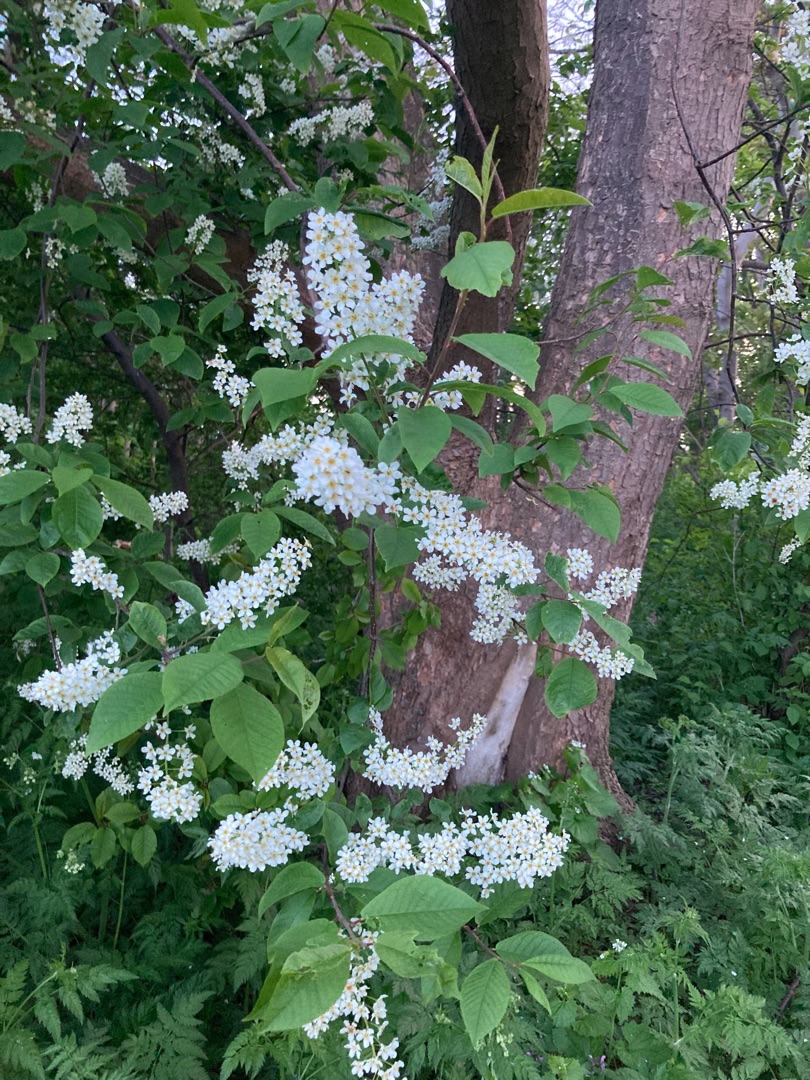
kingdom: Plantae
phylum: Tracheophyta
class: Magnoliopsida
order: Rosales
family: Rosaceae
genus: Prunus
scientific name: Prunus padus
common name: Almindelig hæg
